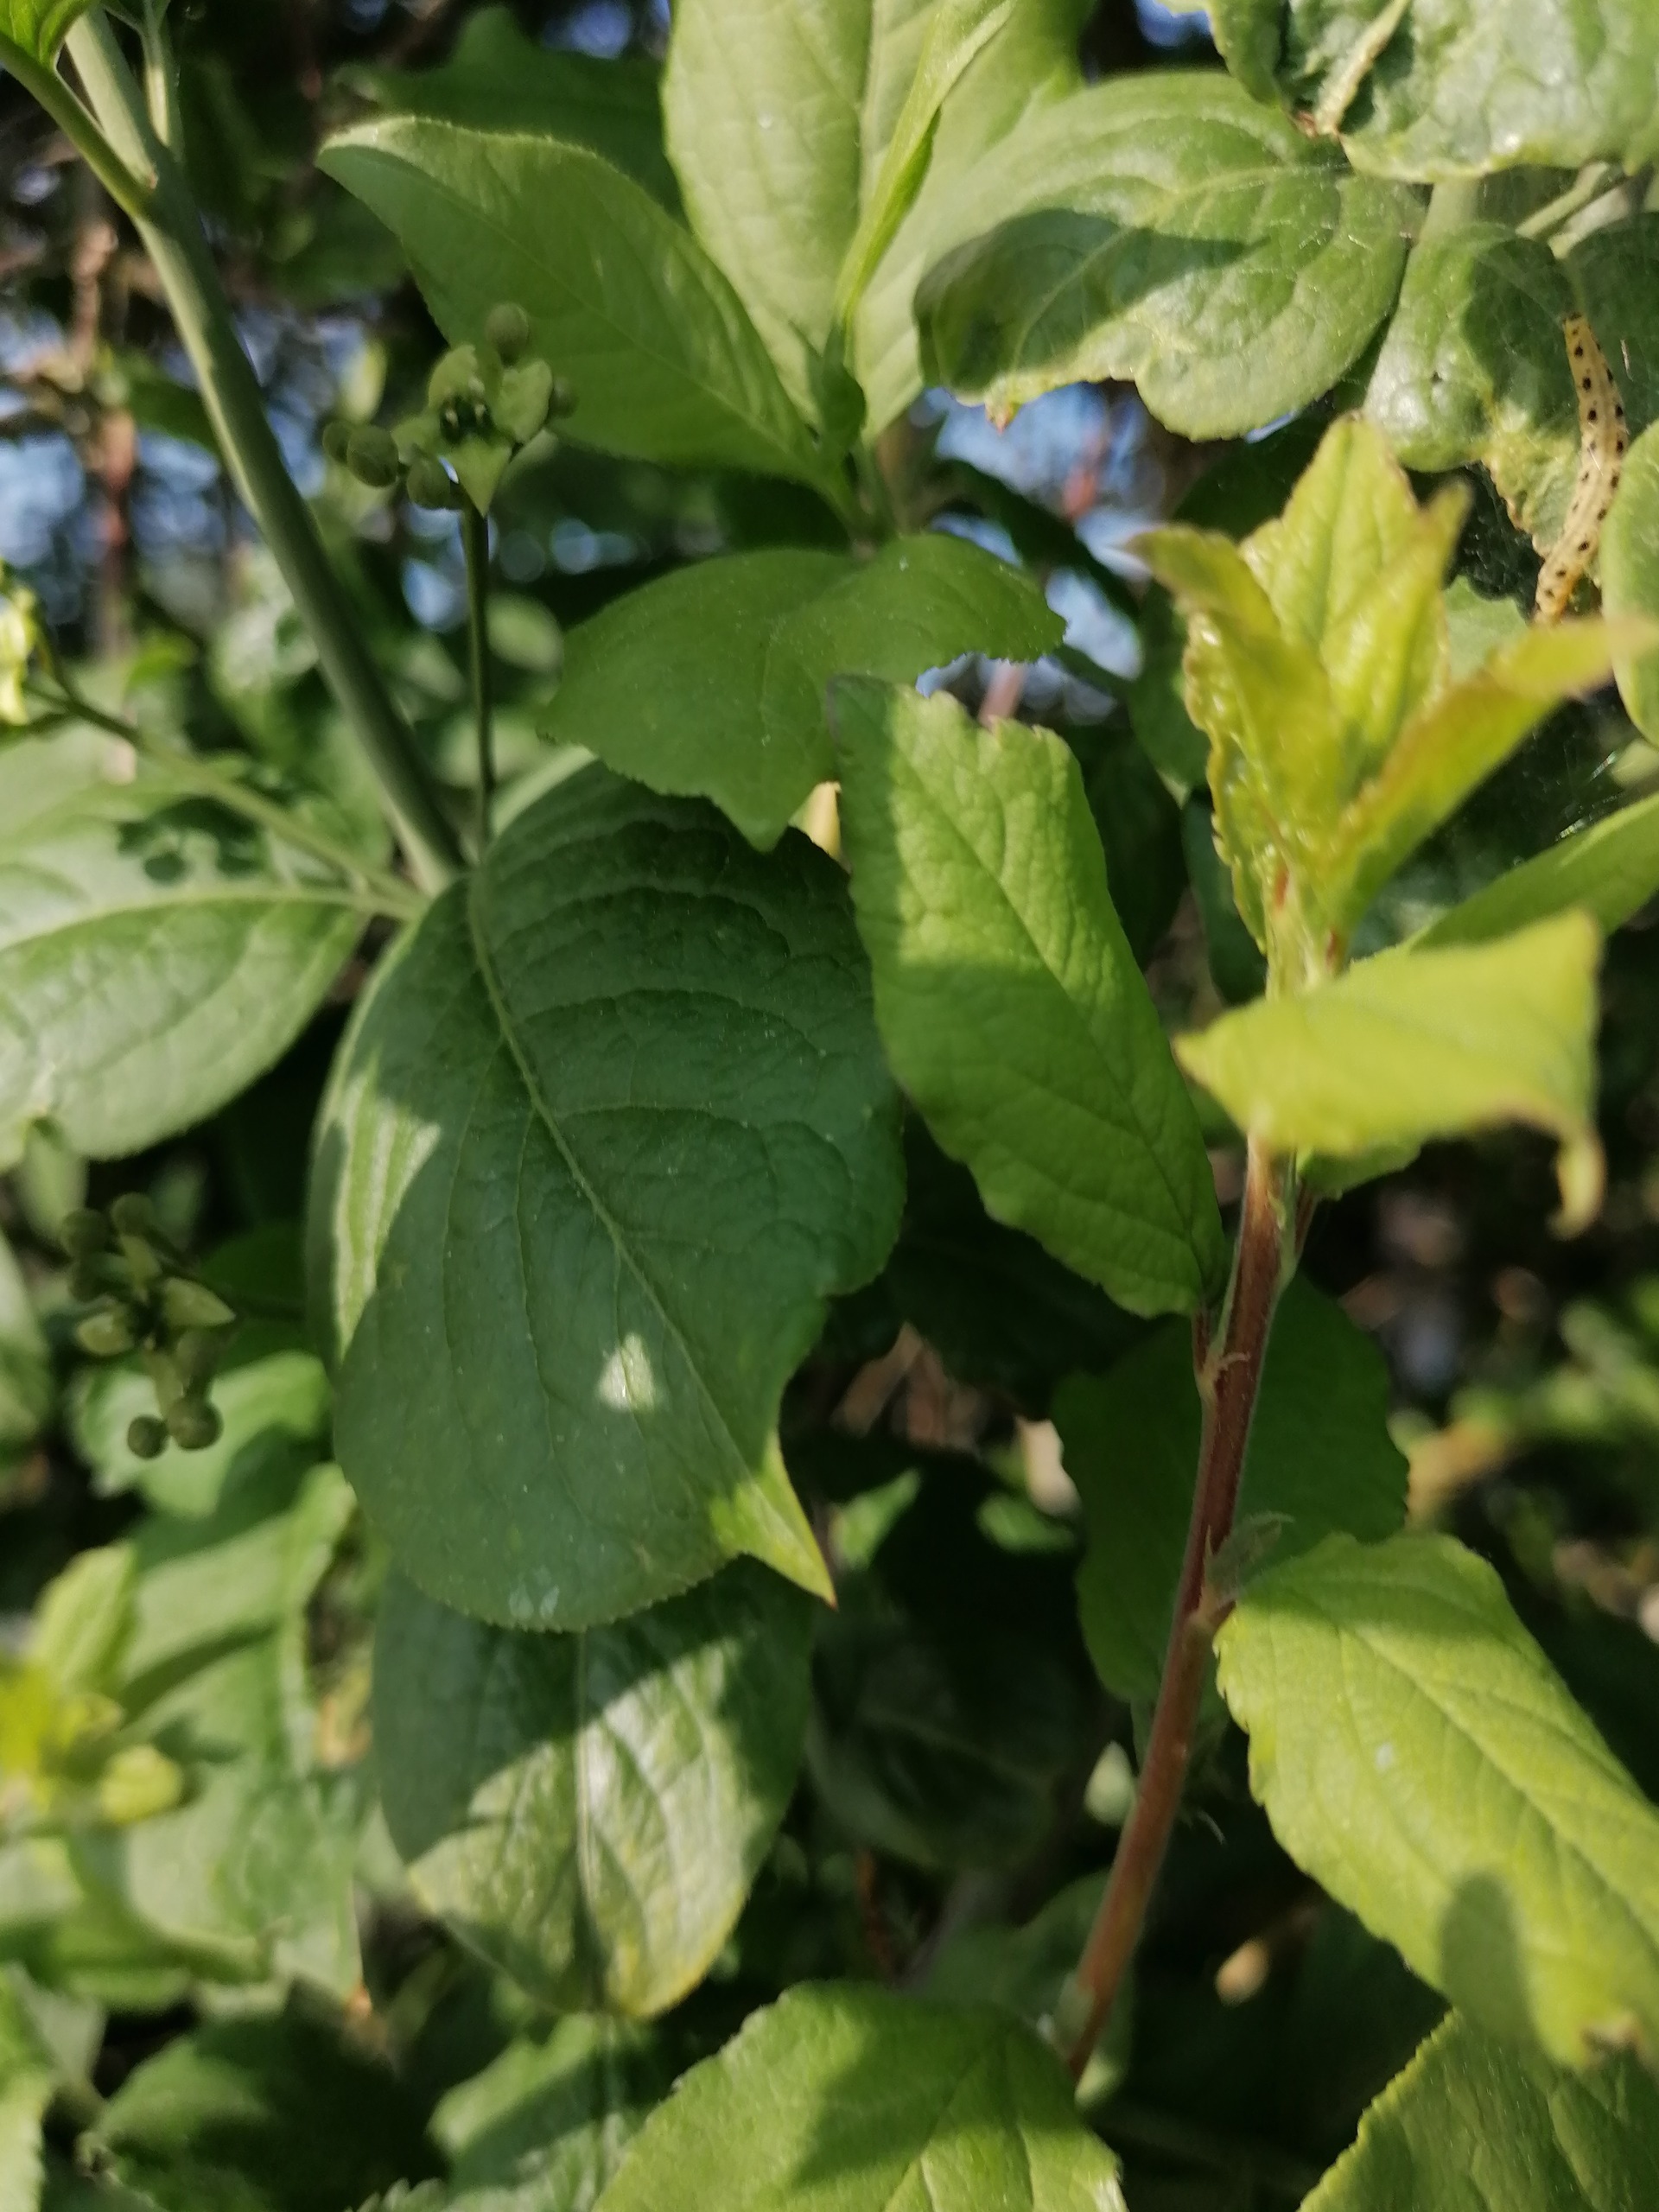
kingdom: Plantae
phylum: Tracheophyta
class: Magnoliopsida
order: Celastrales
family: Celastraceae
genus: Euonymus
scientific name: Euonymus europaeus
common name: Benved
